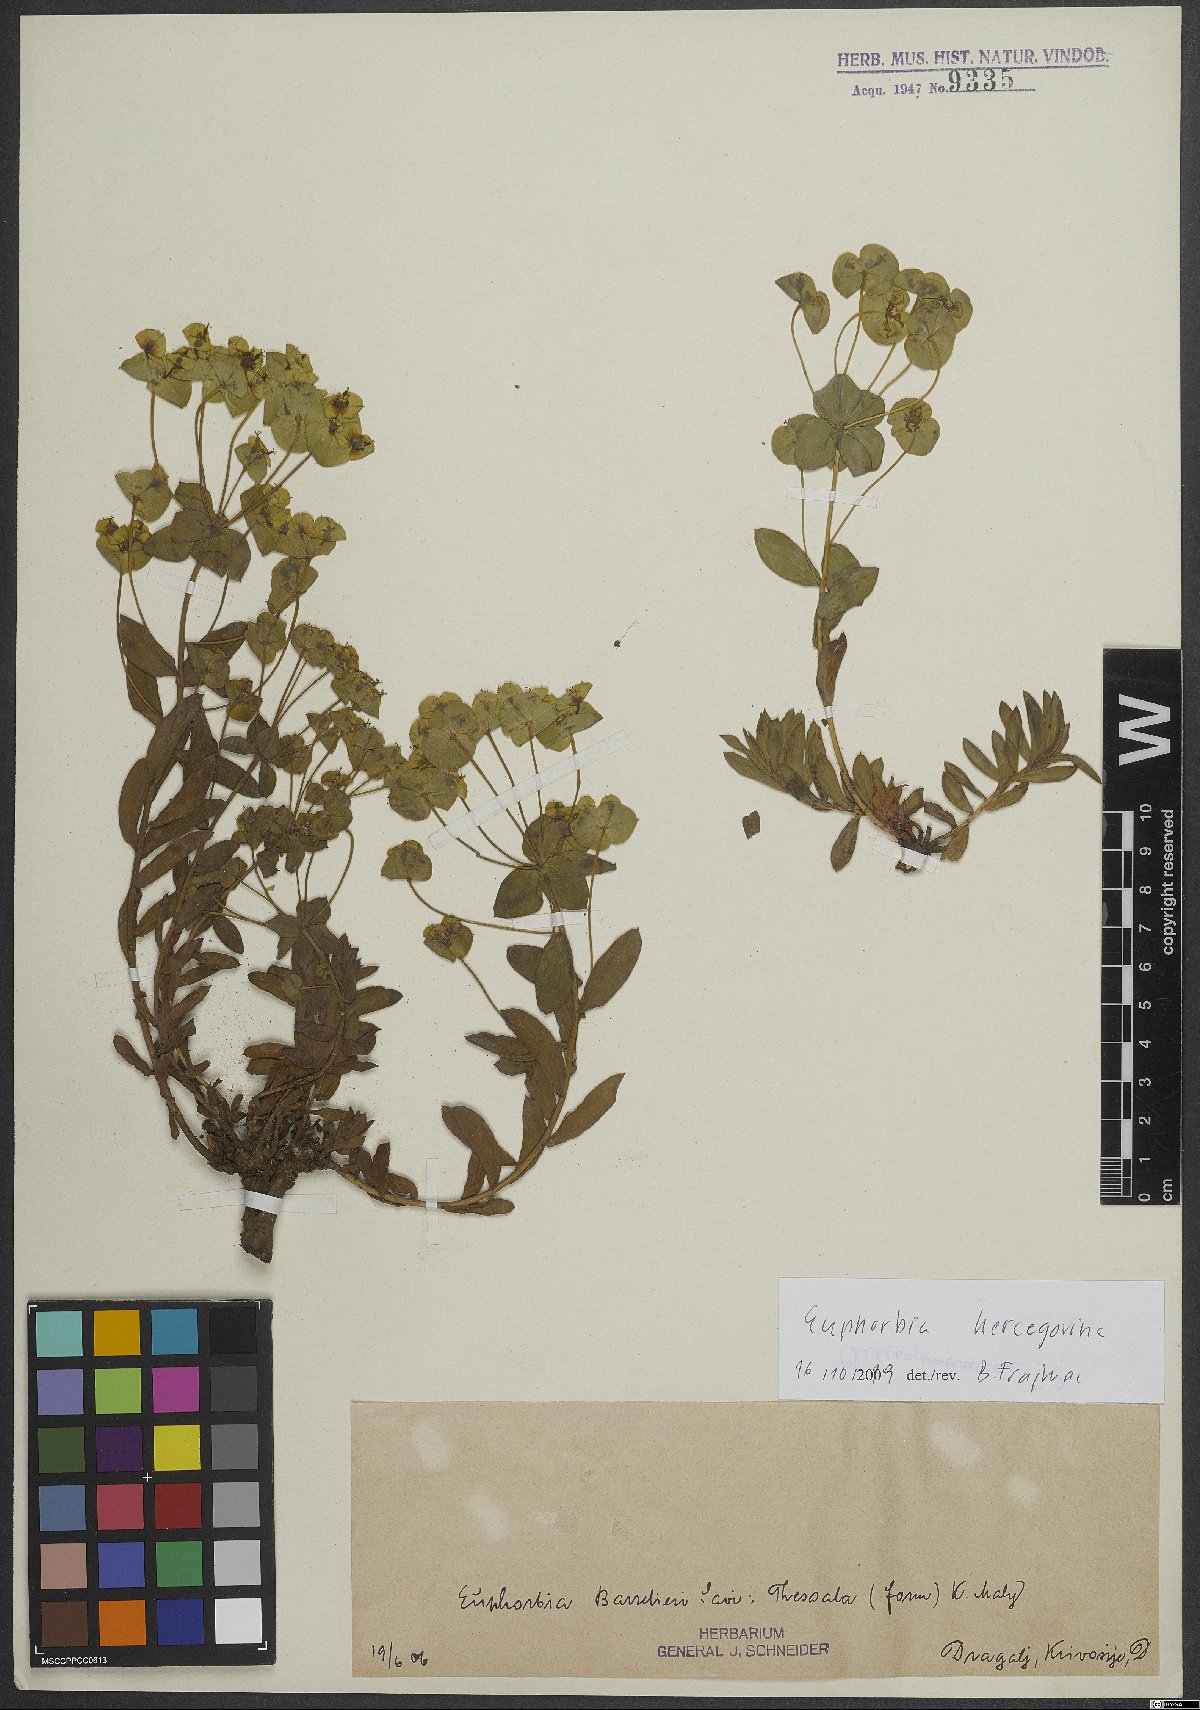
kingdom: Plantae
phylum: Tracheophyta
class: Magnoliopsida
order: Malpighiales
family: Euphorbiaceae
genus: Euphorbia
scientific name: Euphorbia barrelieri
